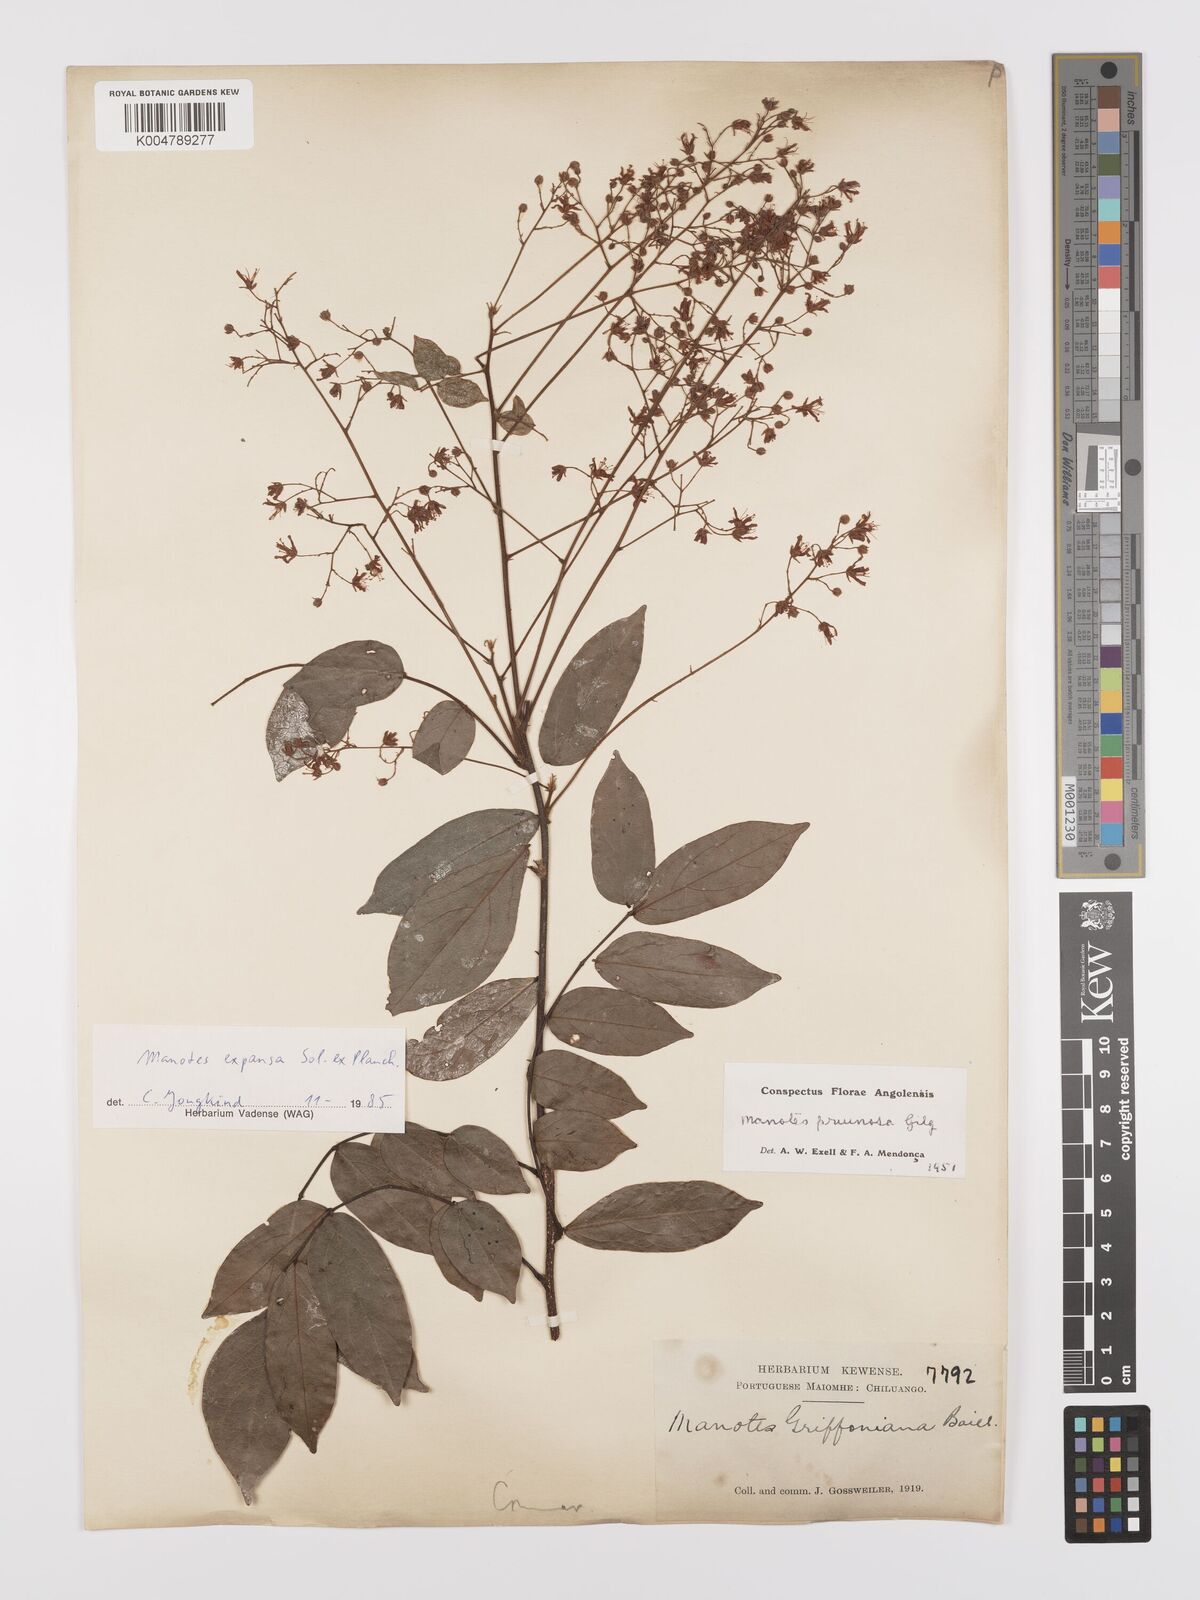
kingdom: Plantae
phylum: Tracheophyta
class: Magnoliopsida
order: Oxalidales
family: Connaraceae
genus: Manotes
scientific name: Manotes expansa
